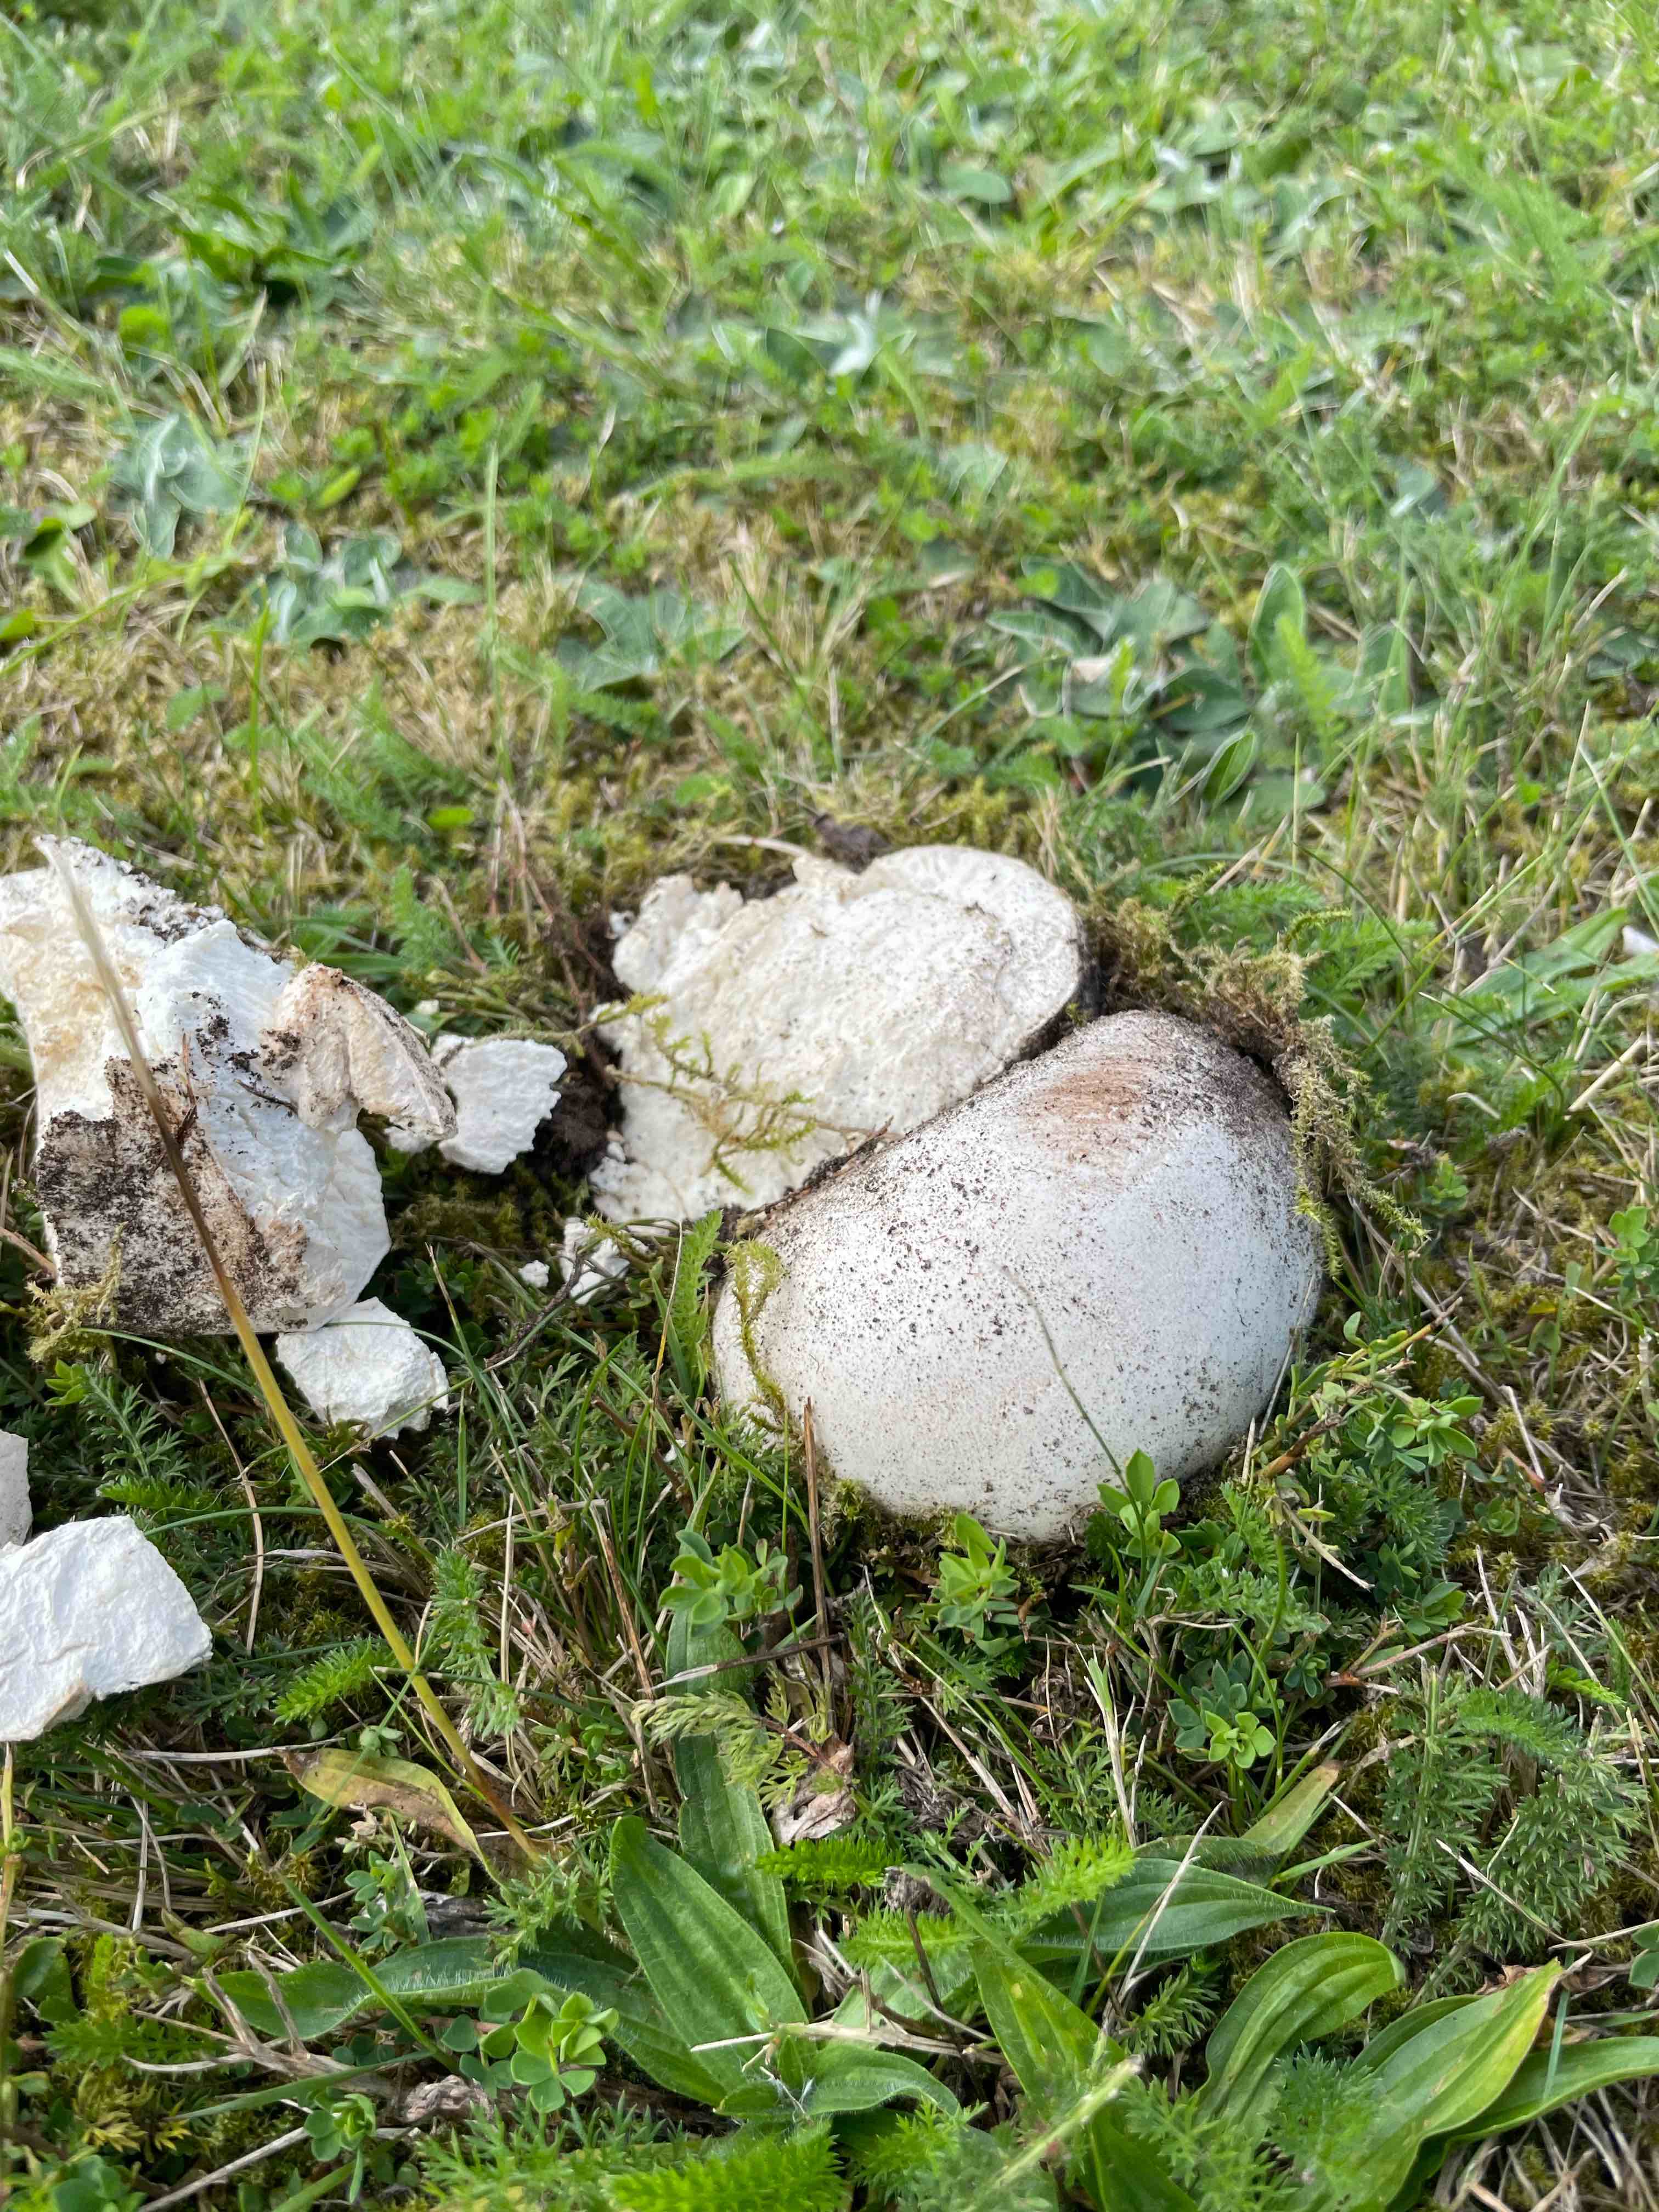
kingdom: Fungi
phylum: Basidiomycota
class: Agaricomycetes
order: Agaricales
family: Lycoperdaceae
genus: Calvatia
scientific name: Calvatia gigantea
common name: kæmpestøvbold
